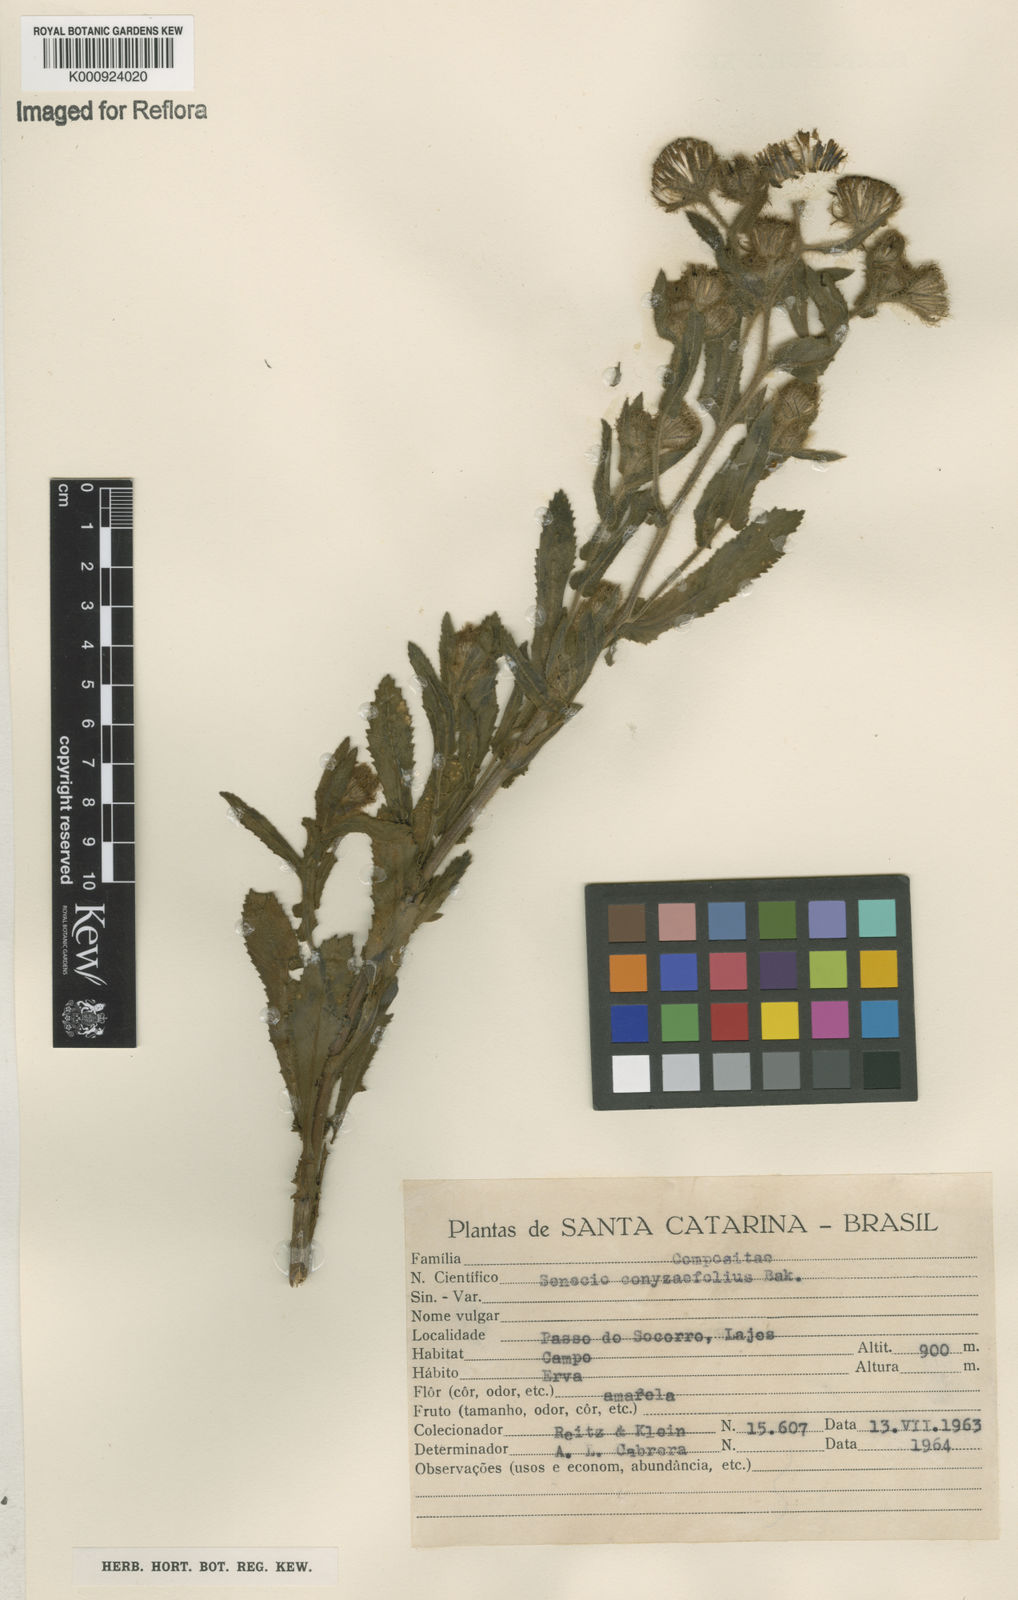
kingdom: Plantae
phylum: Tracheophyta
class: Magnoliopsida
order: Asterales
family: Asteraceae
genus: Senecio
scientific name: Senecio conyzifolius
